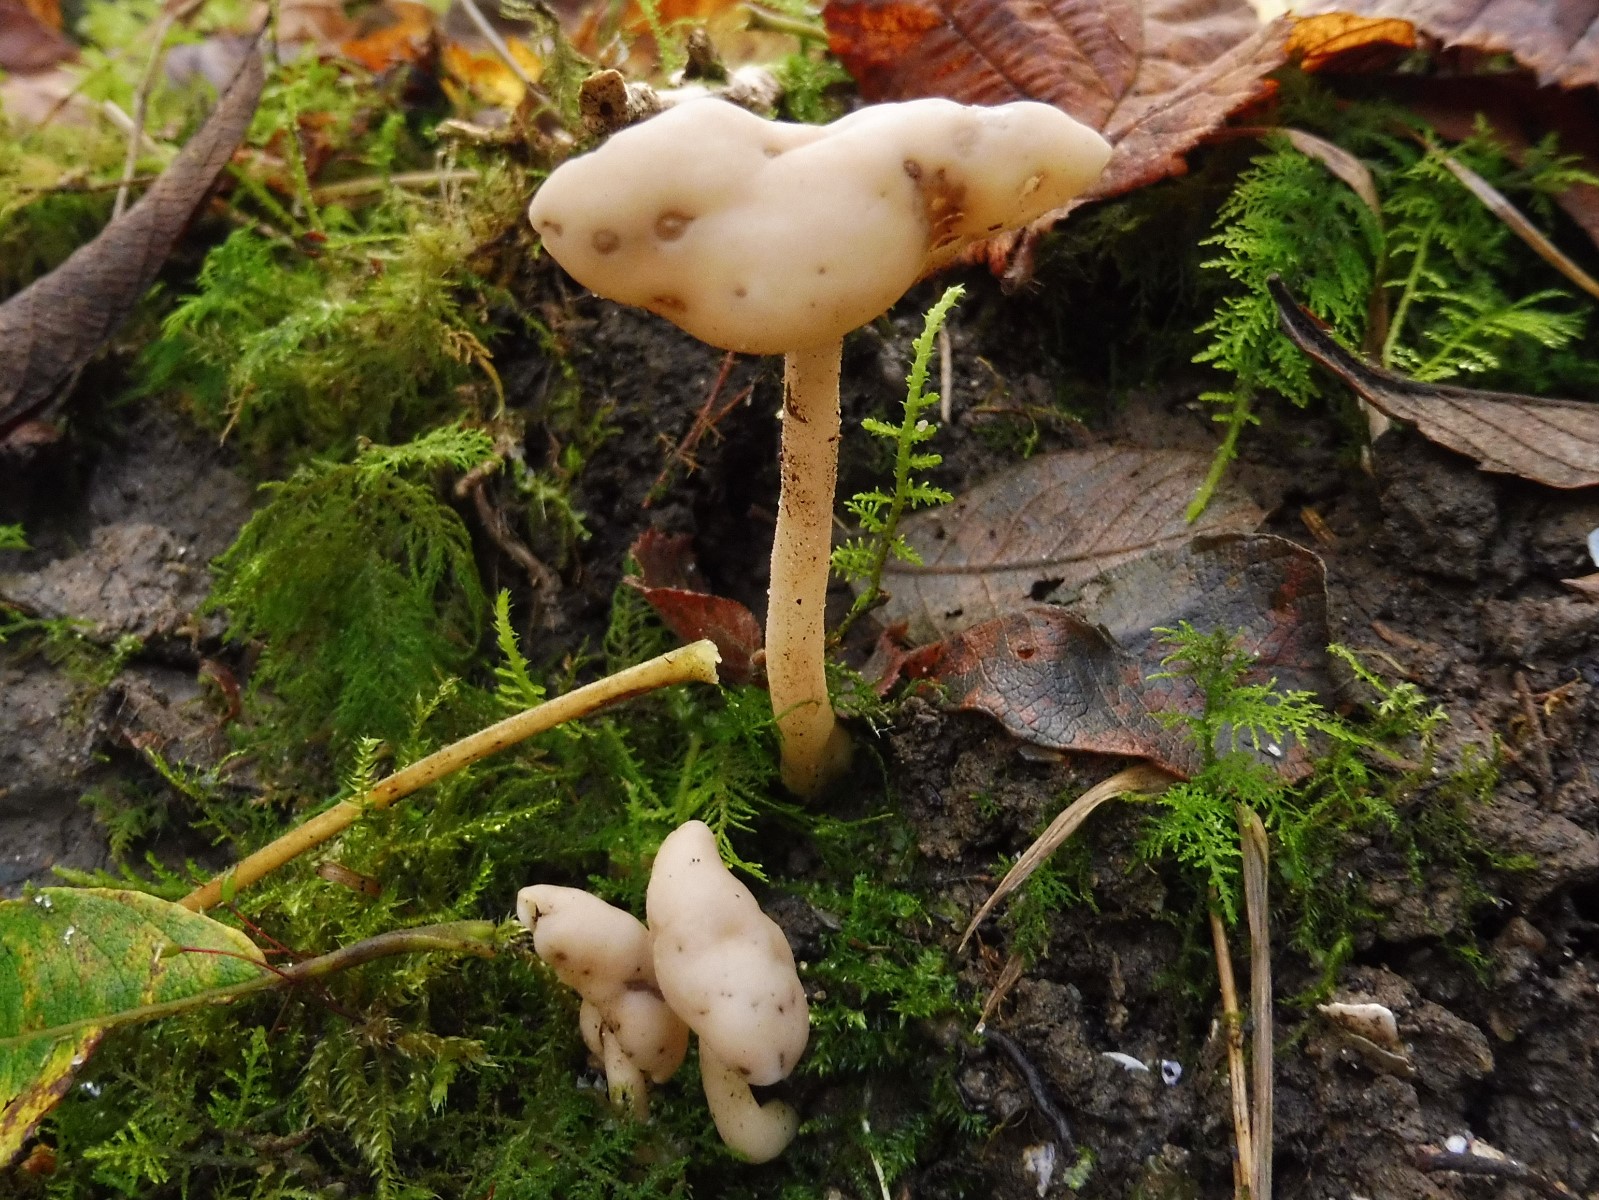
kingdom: Fungi
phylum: Ascomycota
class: Pezizomycetes
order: Pezizales
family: Helvellaceae
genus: Helvella
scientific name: Helvella elastica
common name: elastik-foldhat
